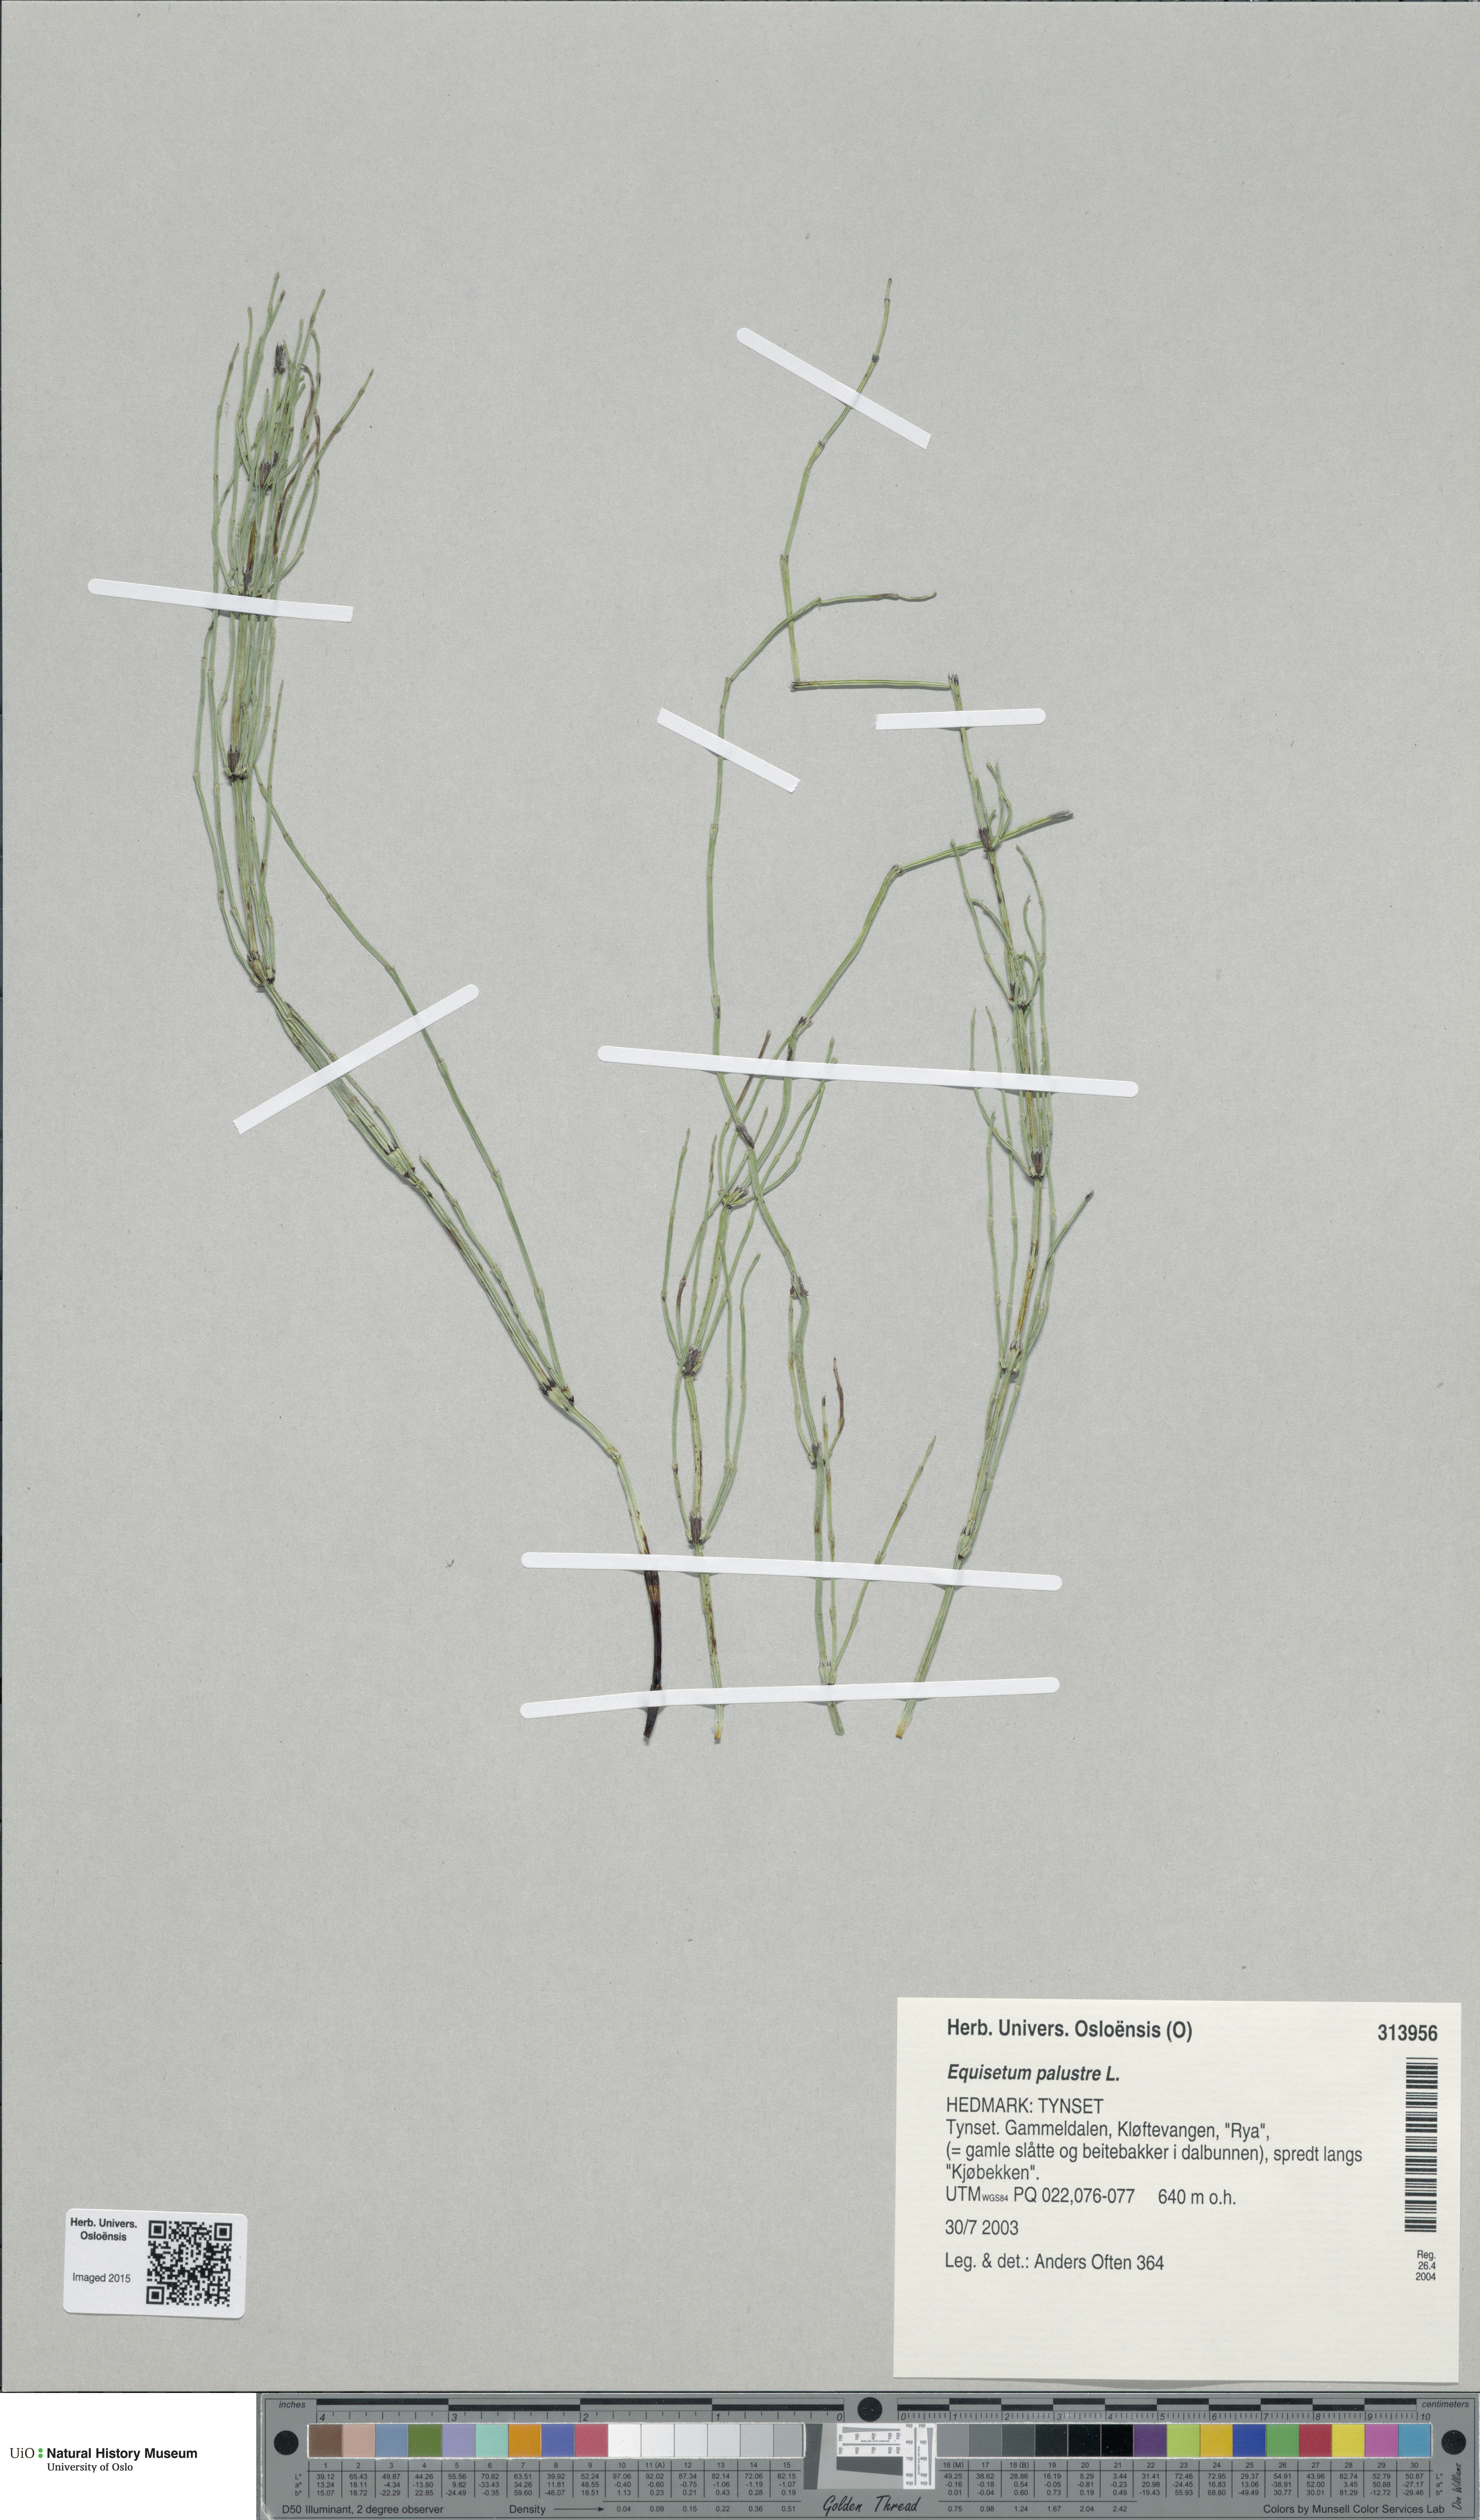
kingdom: Plantae
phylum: Tracheophyta
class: Polypodiopsida
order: Equisetales
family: Equisetaceae
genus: Equisetum
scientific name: Equisetum palustre
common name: Marsh horsetail
